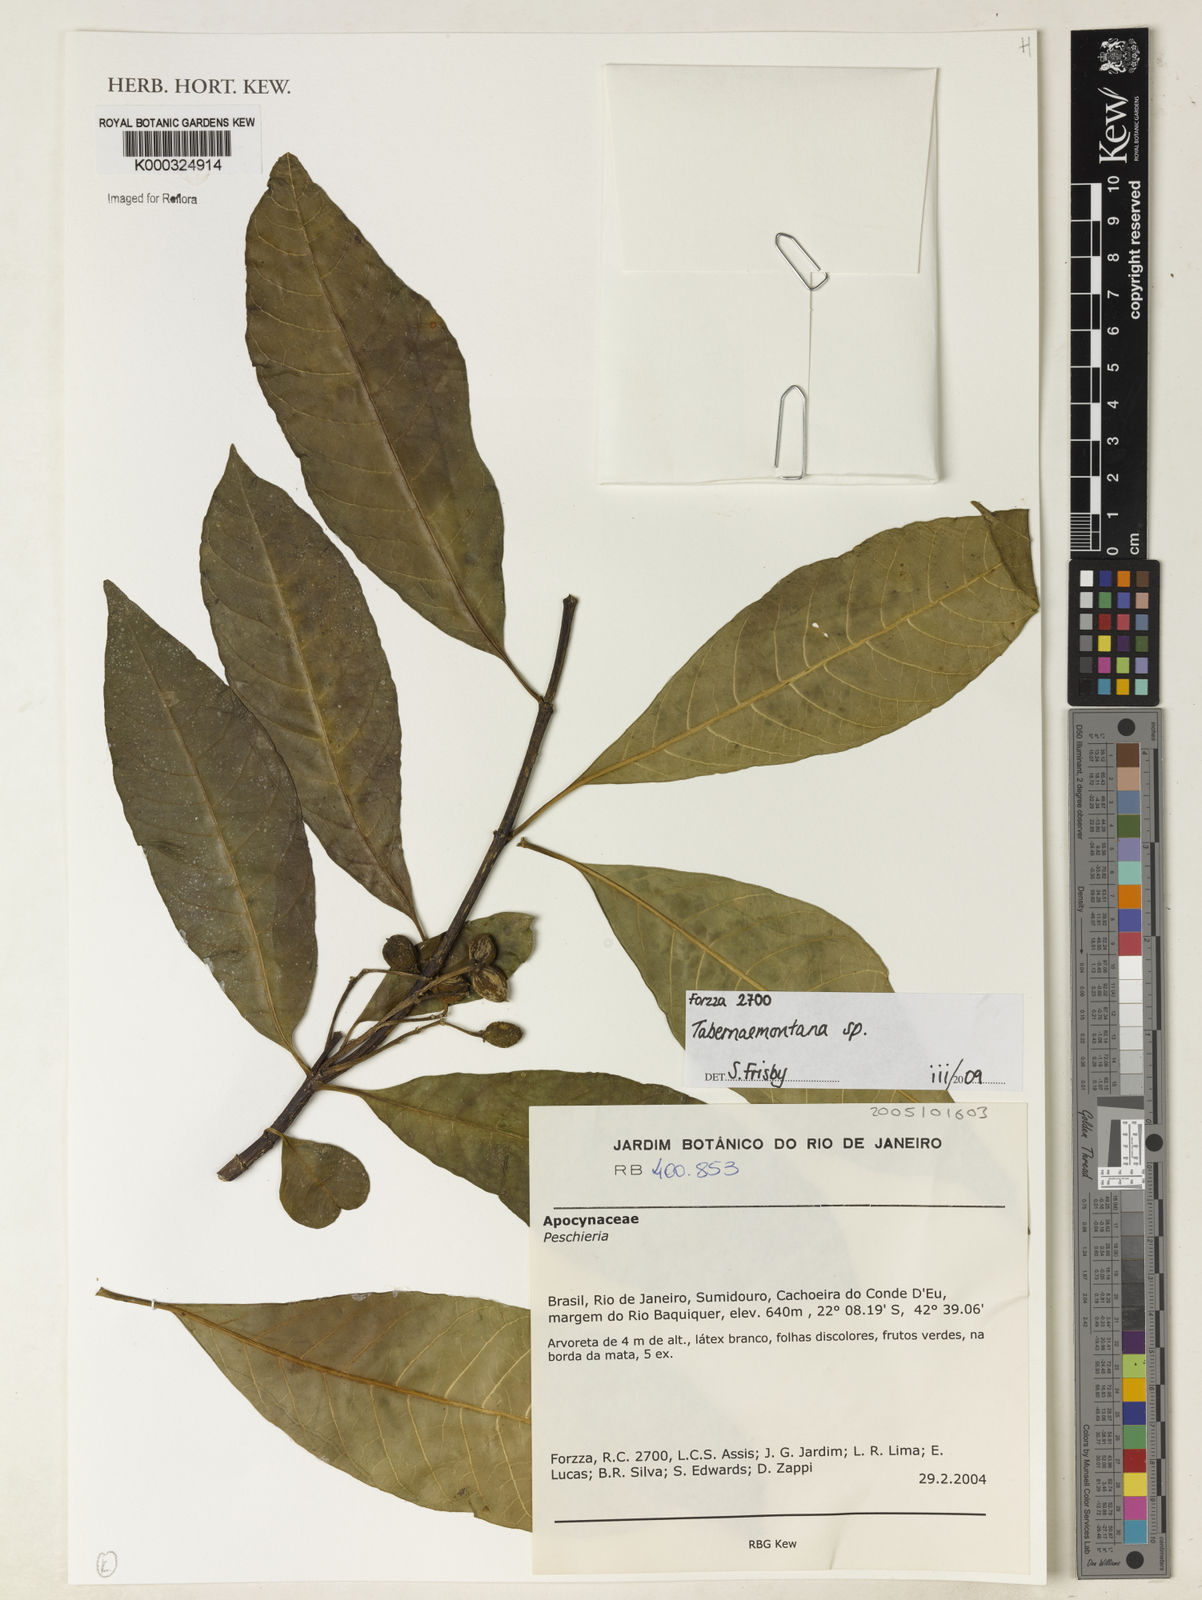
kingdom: Plantae
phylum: Tracheophyta
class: Magnoliopsida
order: Gentianales
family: Apocynaceae
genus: Tabernaemontana
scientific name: Tabernaemontana
